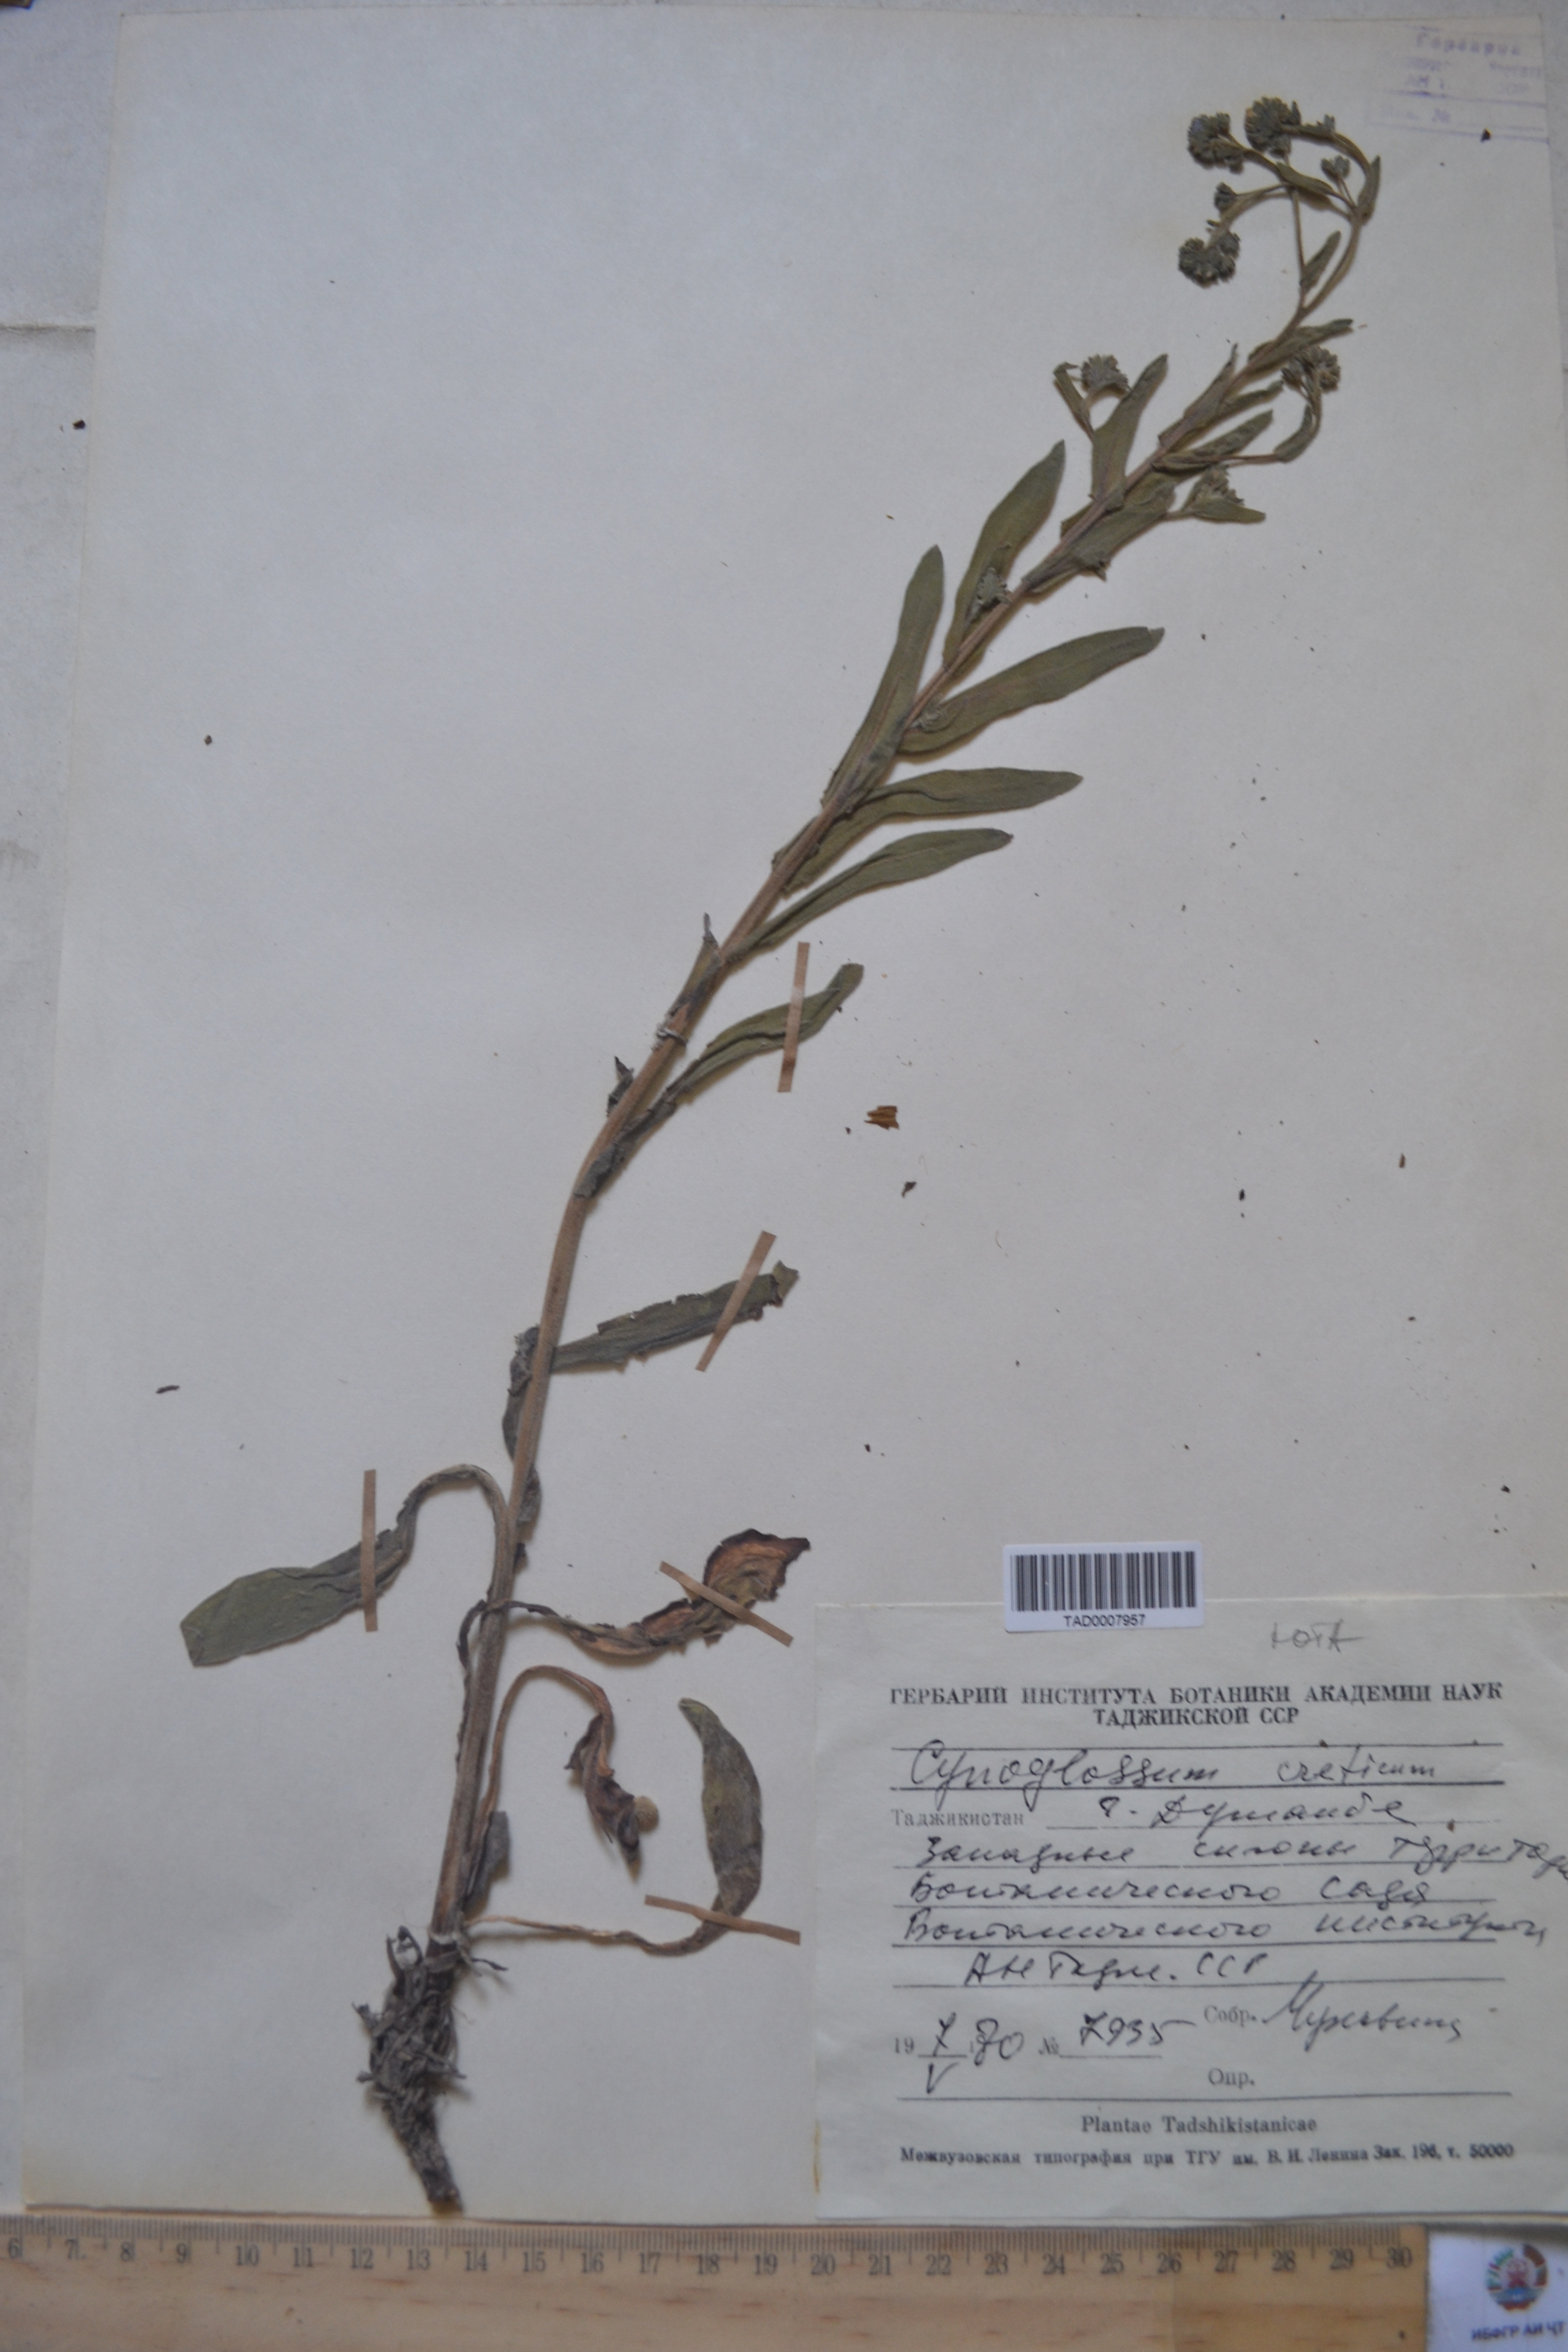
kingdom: Plantae
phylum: Tracheophyta
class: Magnoliopsida
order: Boraginales
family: Boraginaceae
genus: Cynoglossum
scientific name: Cynoglossum creticum
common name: Blue hound's tongue
